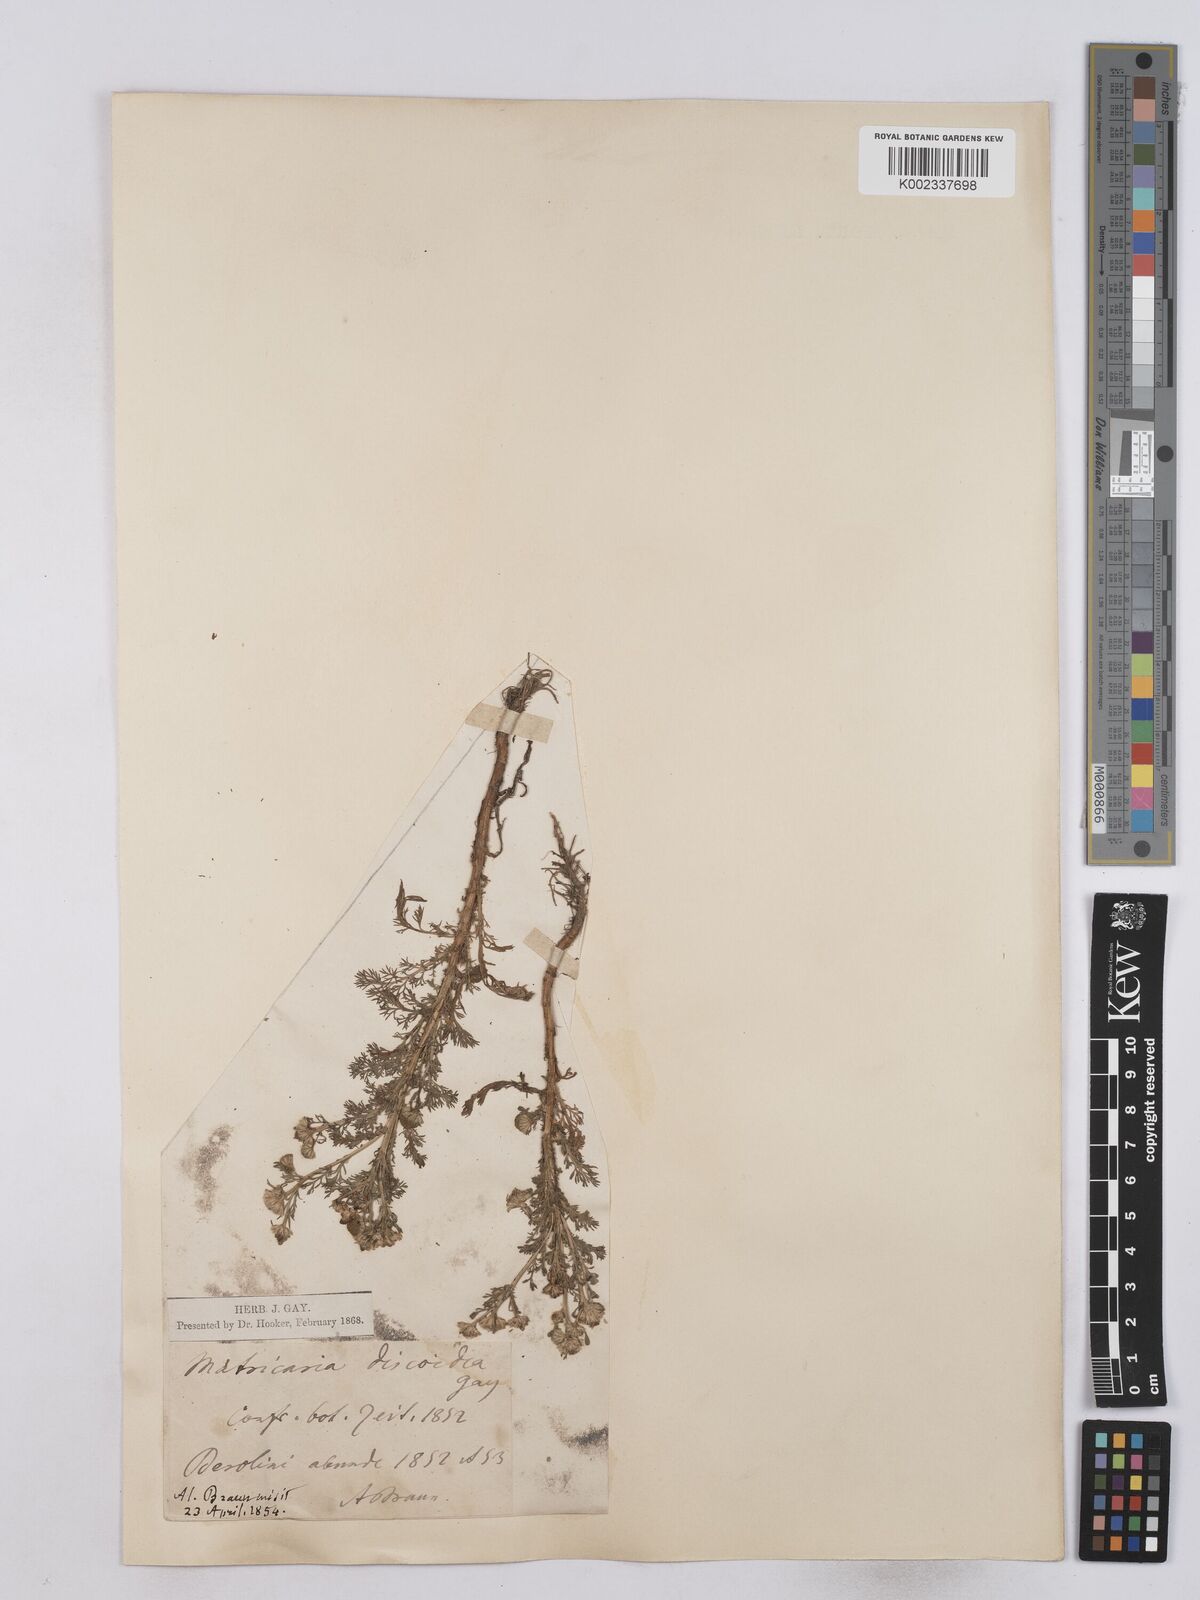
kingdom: Plantae
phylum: Tracheophyta
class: Magnoliopsida
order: Asterales
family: Asteraceae
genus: Matricaria
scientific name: Matricaria discoidea
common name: Disc mayweed
